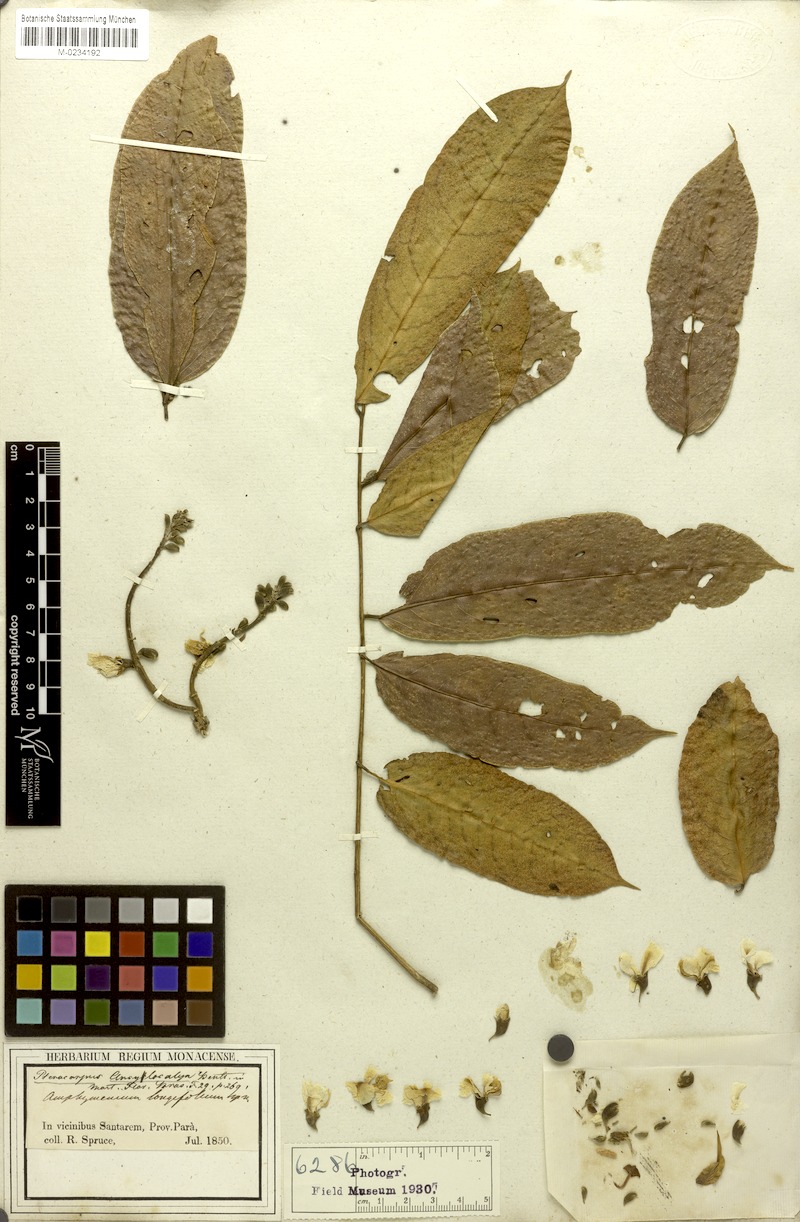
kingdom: Plantae
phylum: Tracheophyta
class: Magnoliopsida
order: Fabales
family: Fabaceae
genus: Pterocarpus
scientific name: Pterocarpus amazonum
